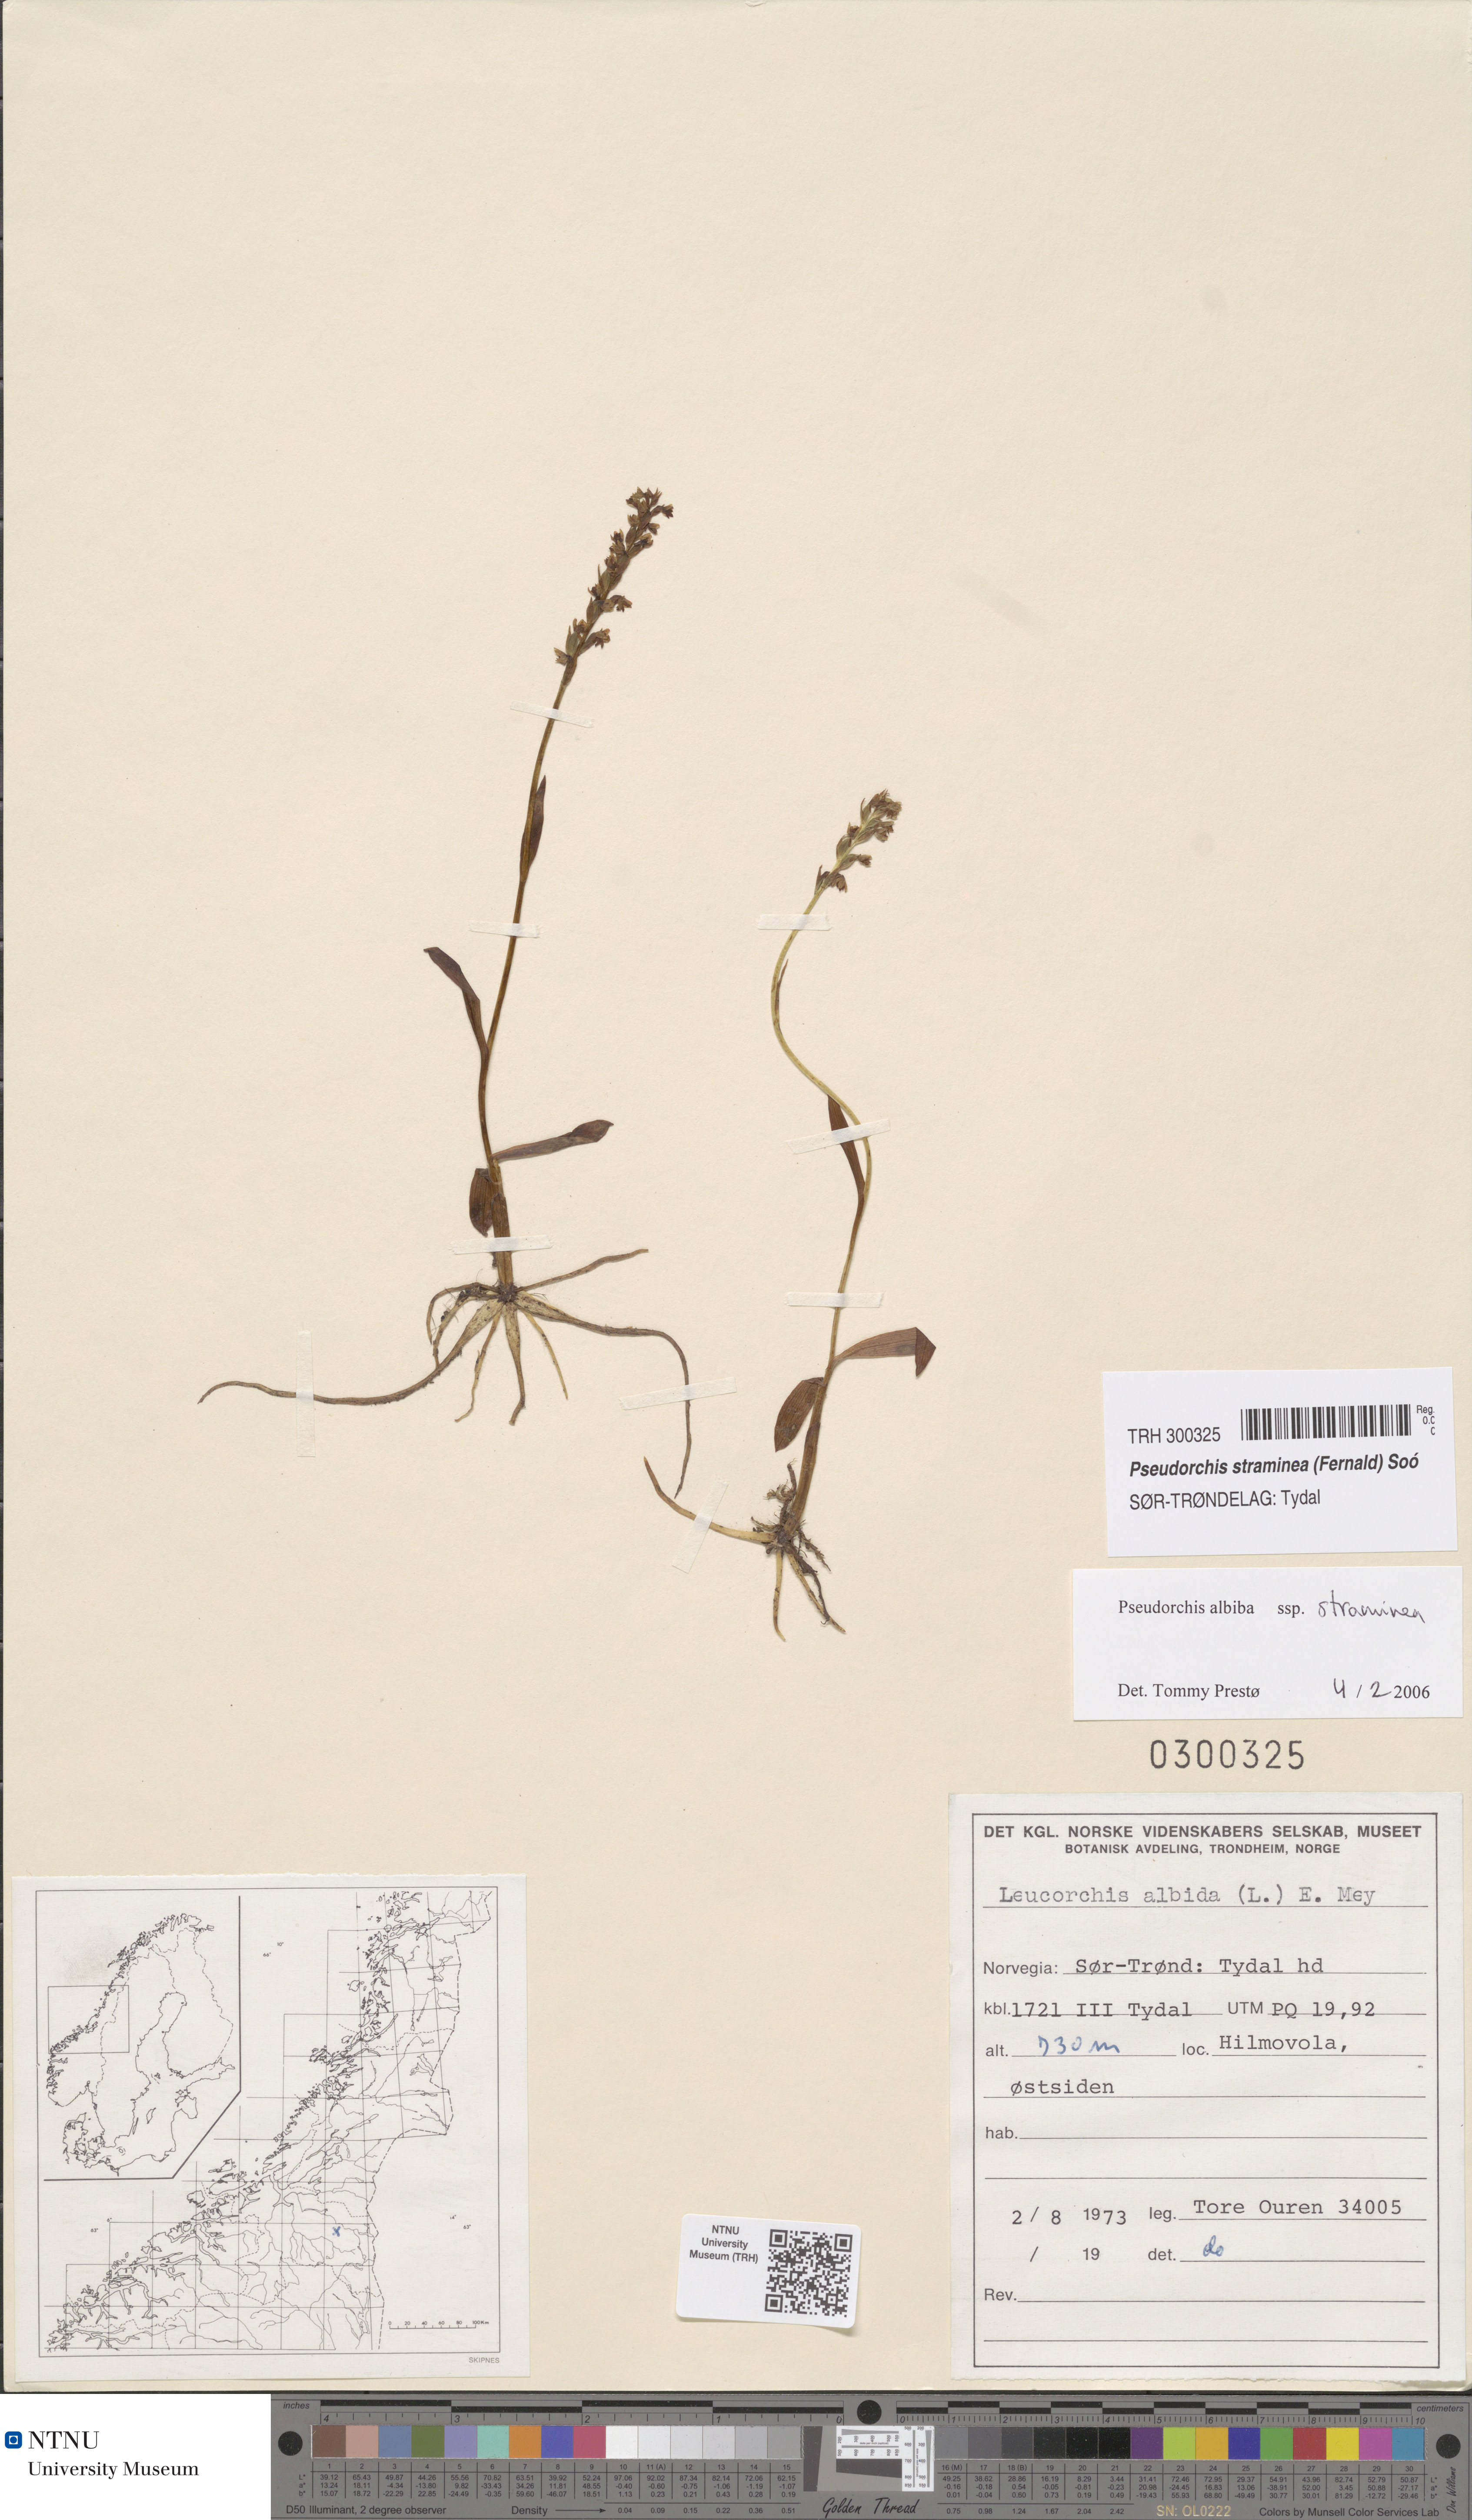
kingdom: Plantae
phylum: Tracheophyta
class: Liliopsida
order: Asparagales
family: Orchidaceae
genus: Pseudorchis
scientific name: Pseudorchis straminea
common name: Vanilla-scented bog orchid
